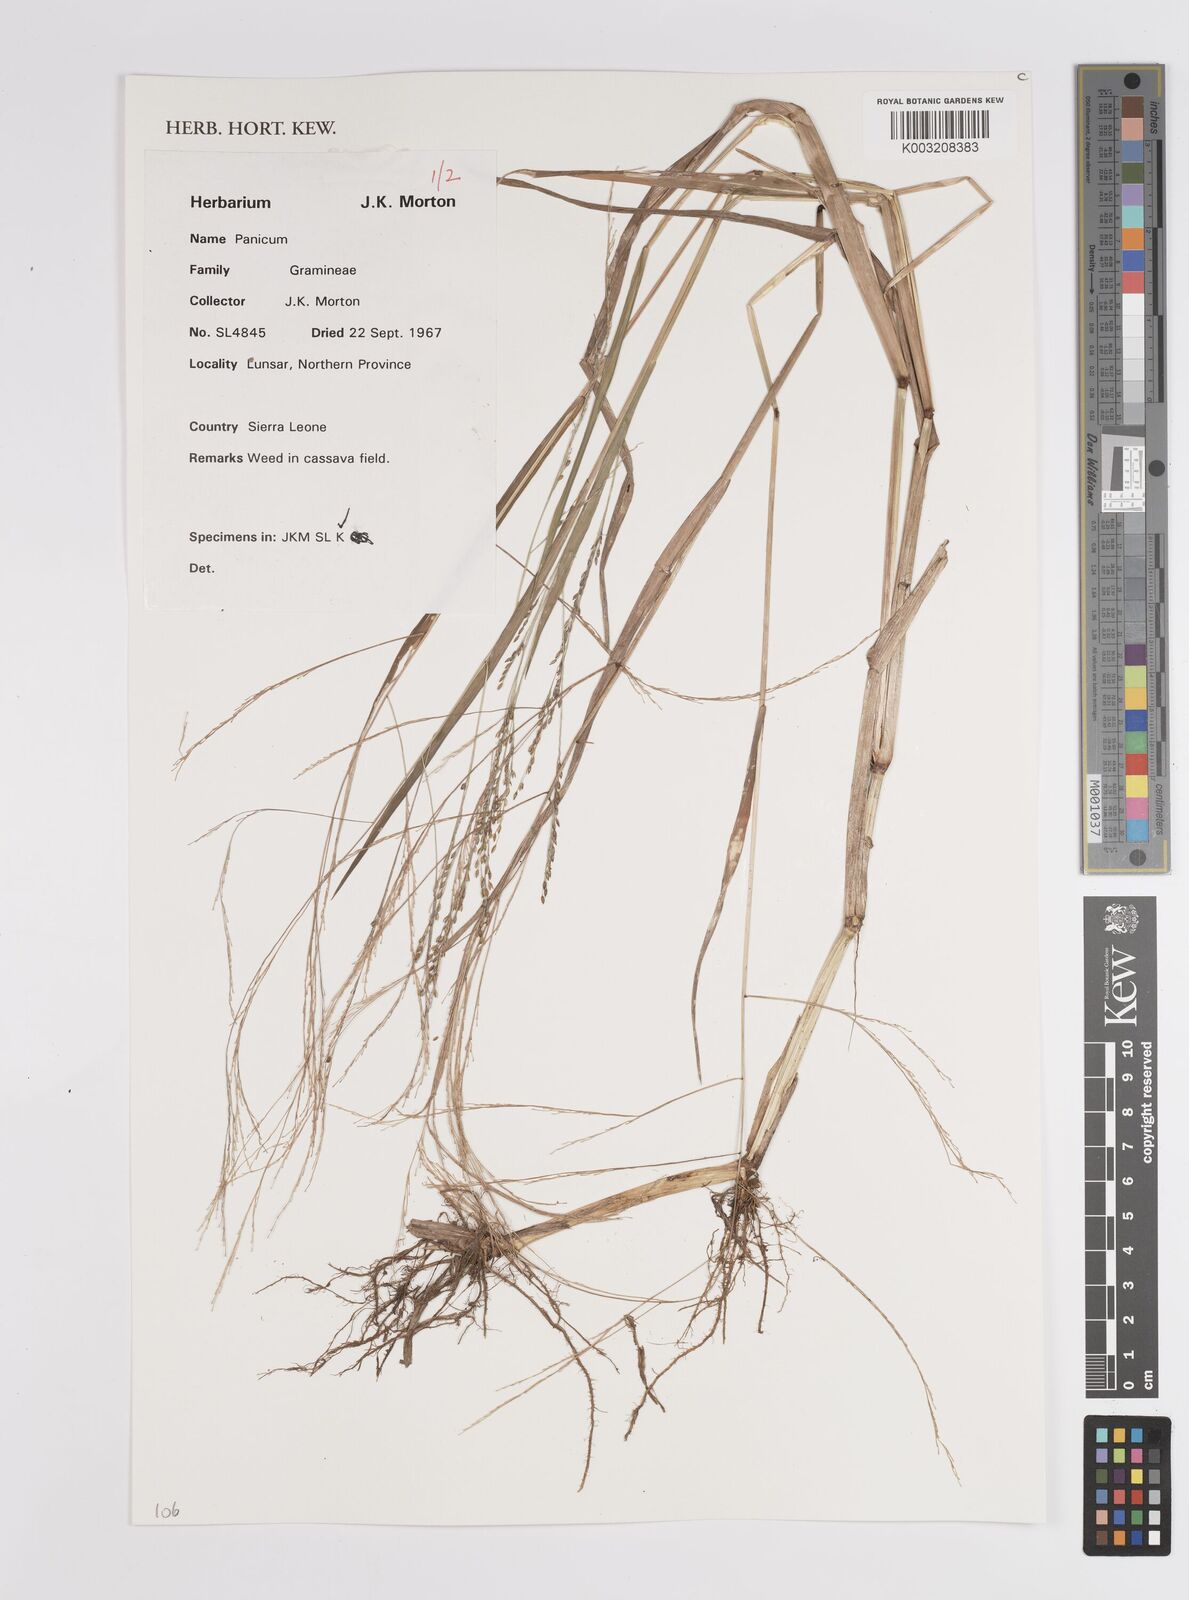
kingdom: Plantae
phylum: Tracheophyta
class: Liliopsida
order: Poales
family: Poaceae
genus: Panicum
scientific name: Panicum
